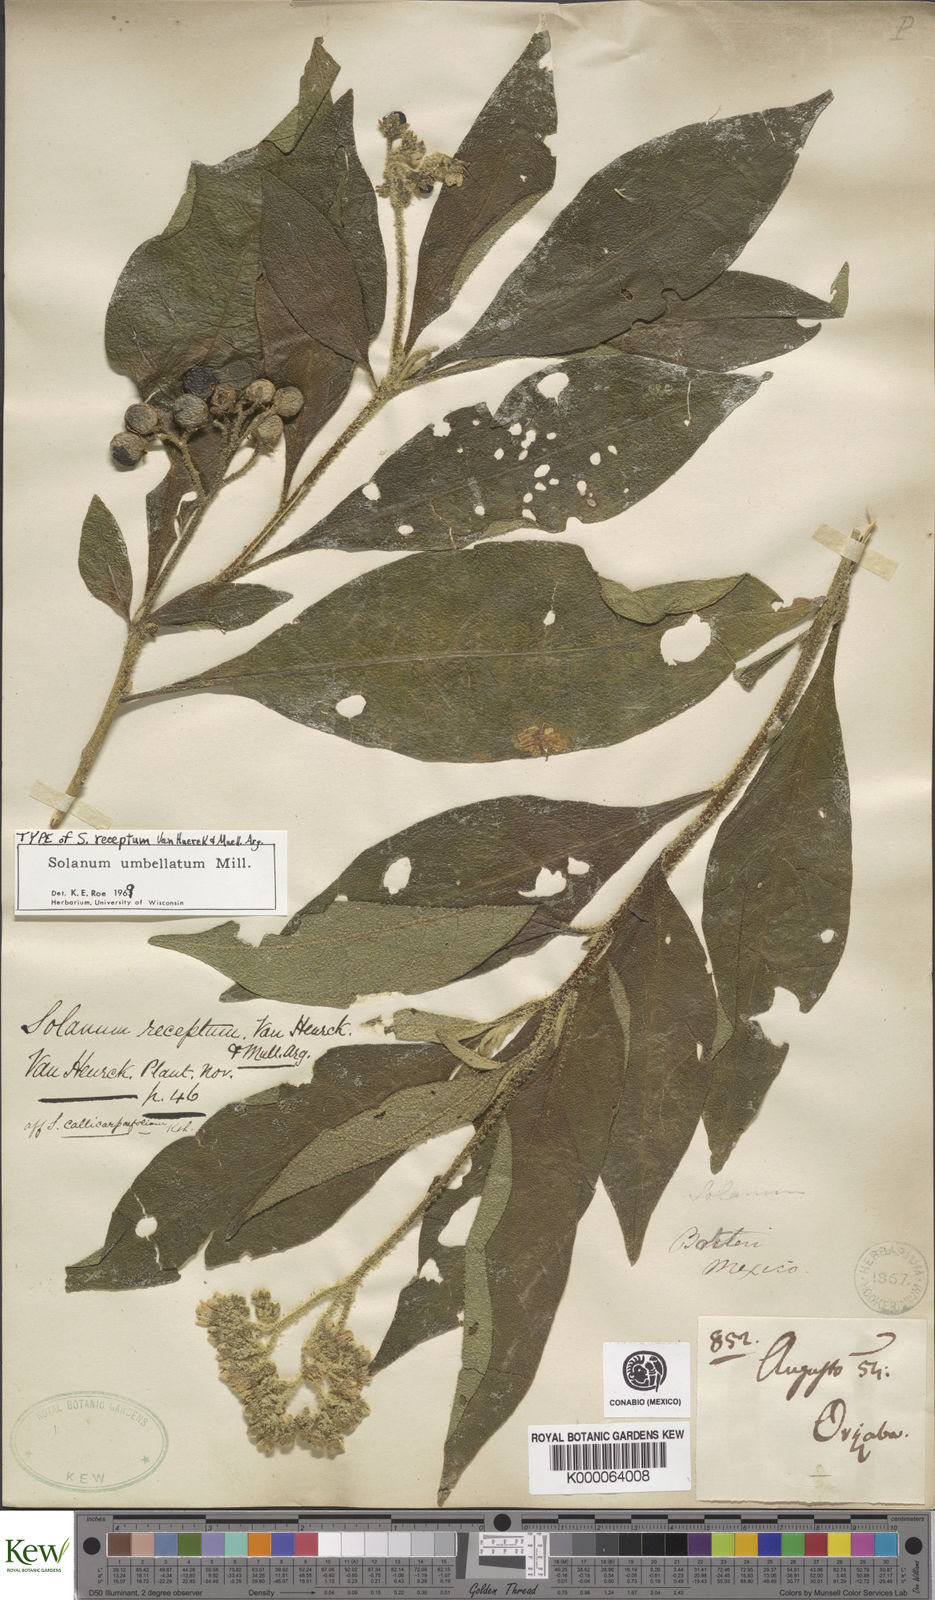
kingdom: Plantae
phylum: Tracheophyta
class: Magnoliopsida
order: Solanales
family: Solanaceae
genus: Solanum
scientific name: Solanum umbellatum
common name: Nightshade
